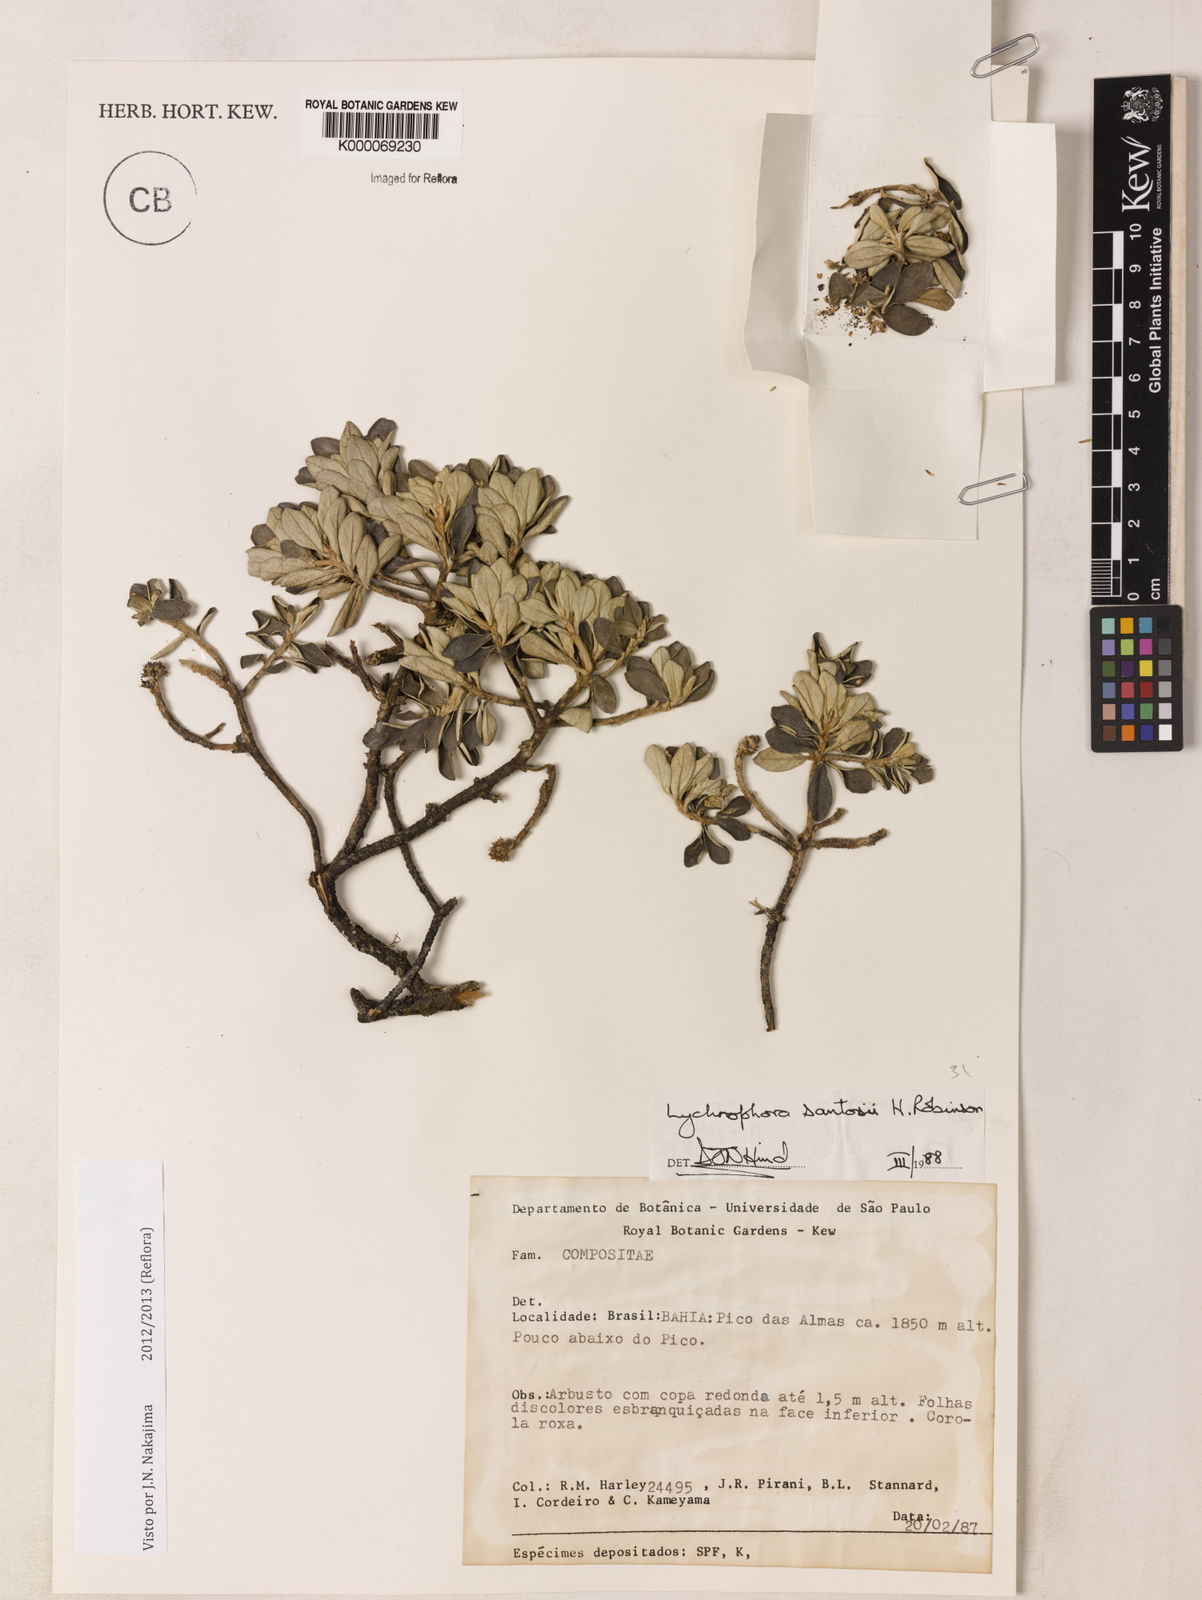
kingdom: Plantae
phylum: Tracheophyta
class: Magnoliopsida
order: Asterales
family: Asteraceae
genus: Lychnophorella
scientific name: Lychnophorella santosii
